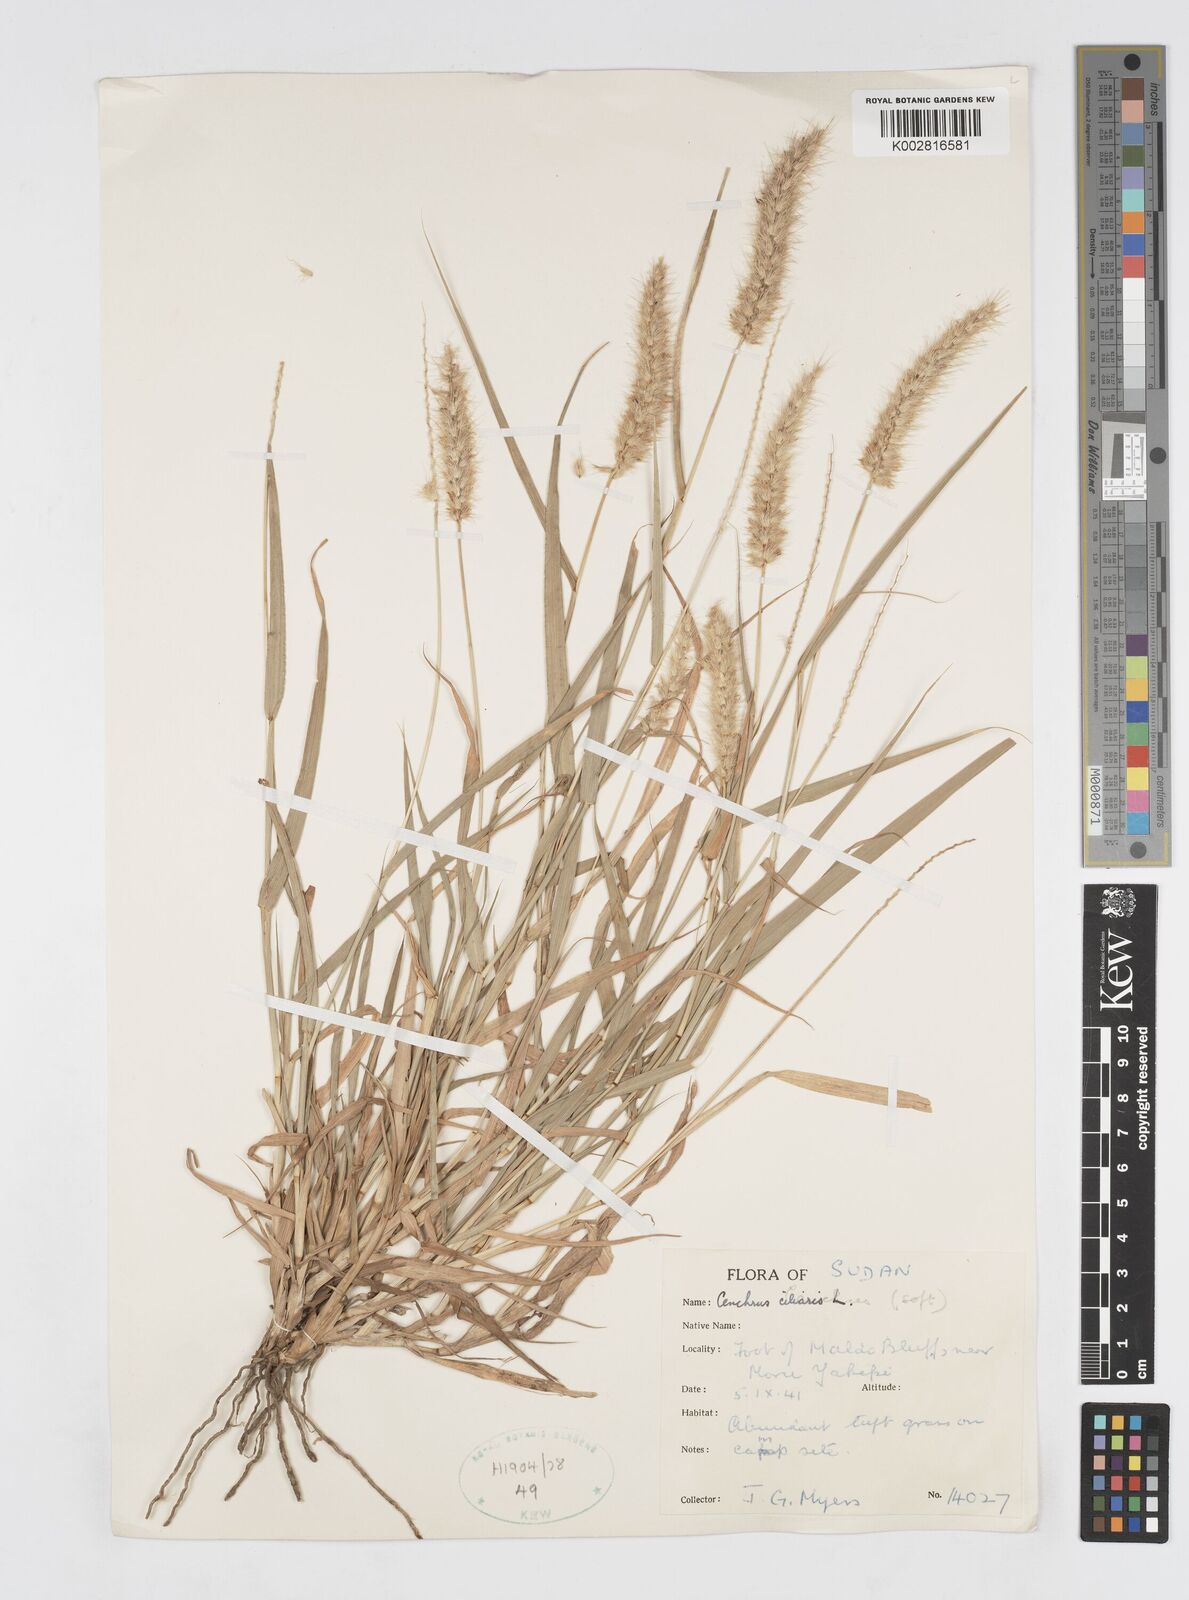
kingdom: Plantae
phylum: Tracheophyta
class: Liliopsida
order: Poales
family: Poaceae
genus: Cenchrus
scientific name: Cenchrus ciliaris
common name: Buffelgrass
